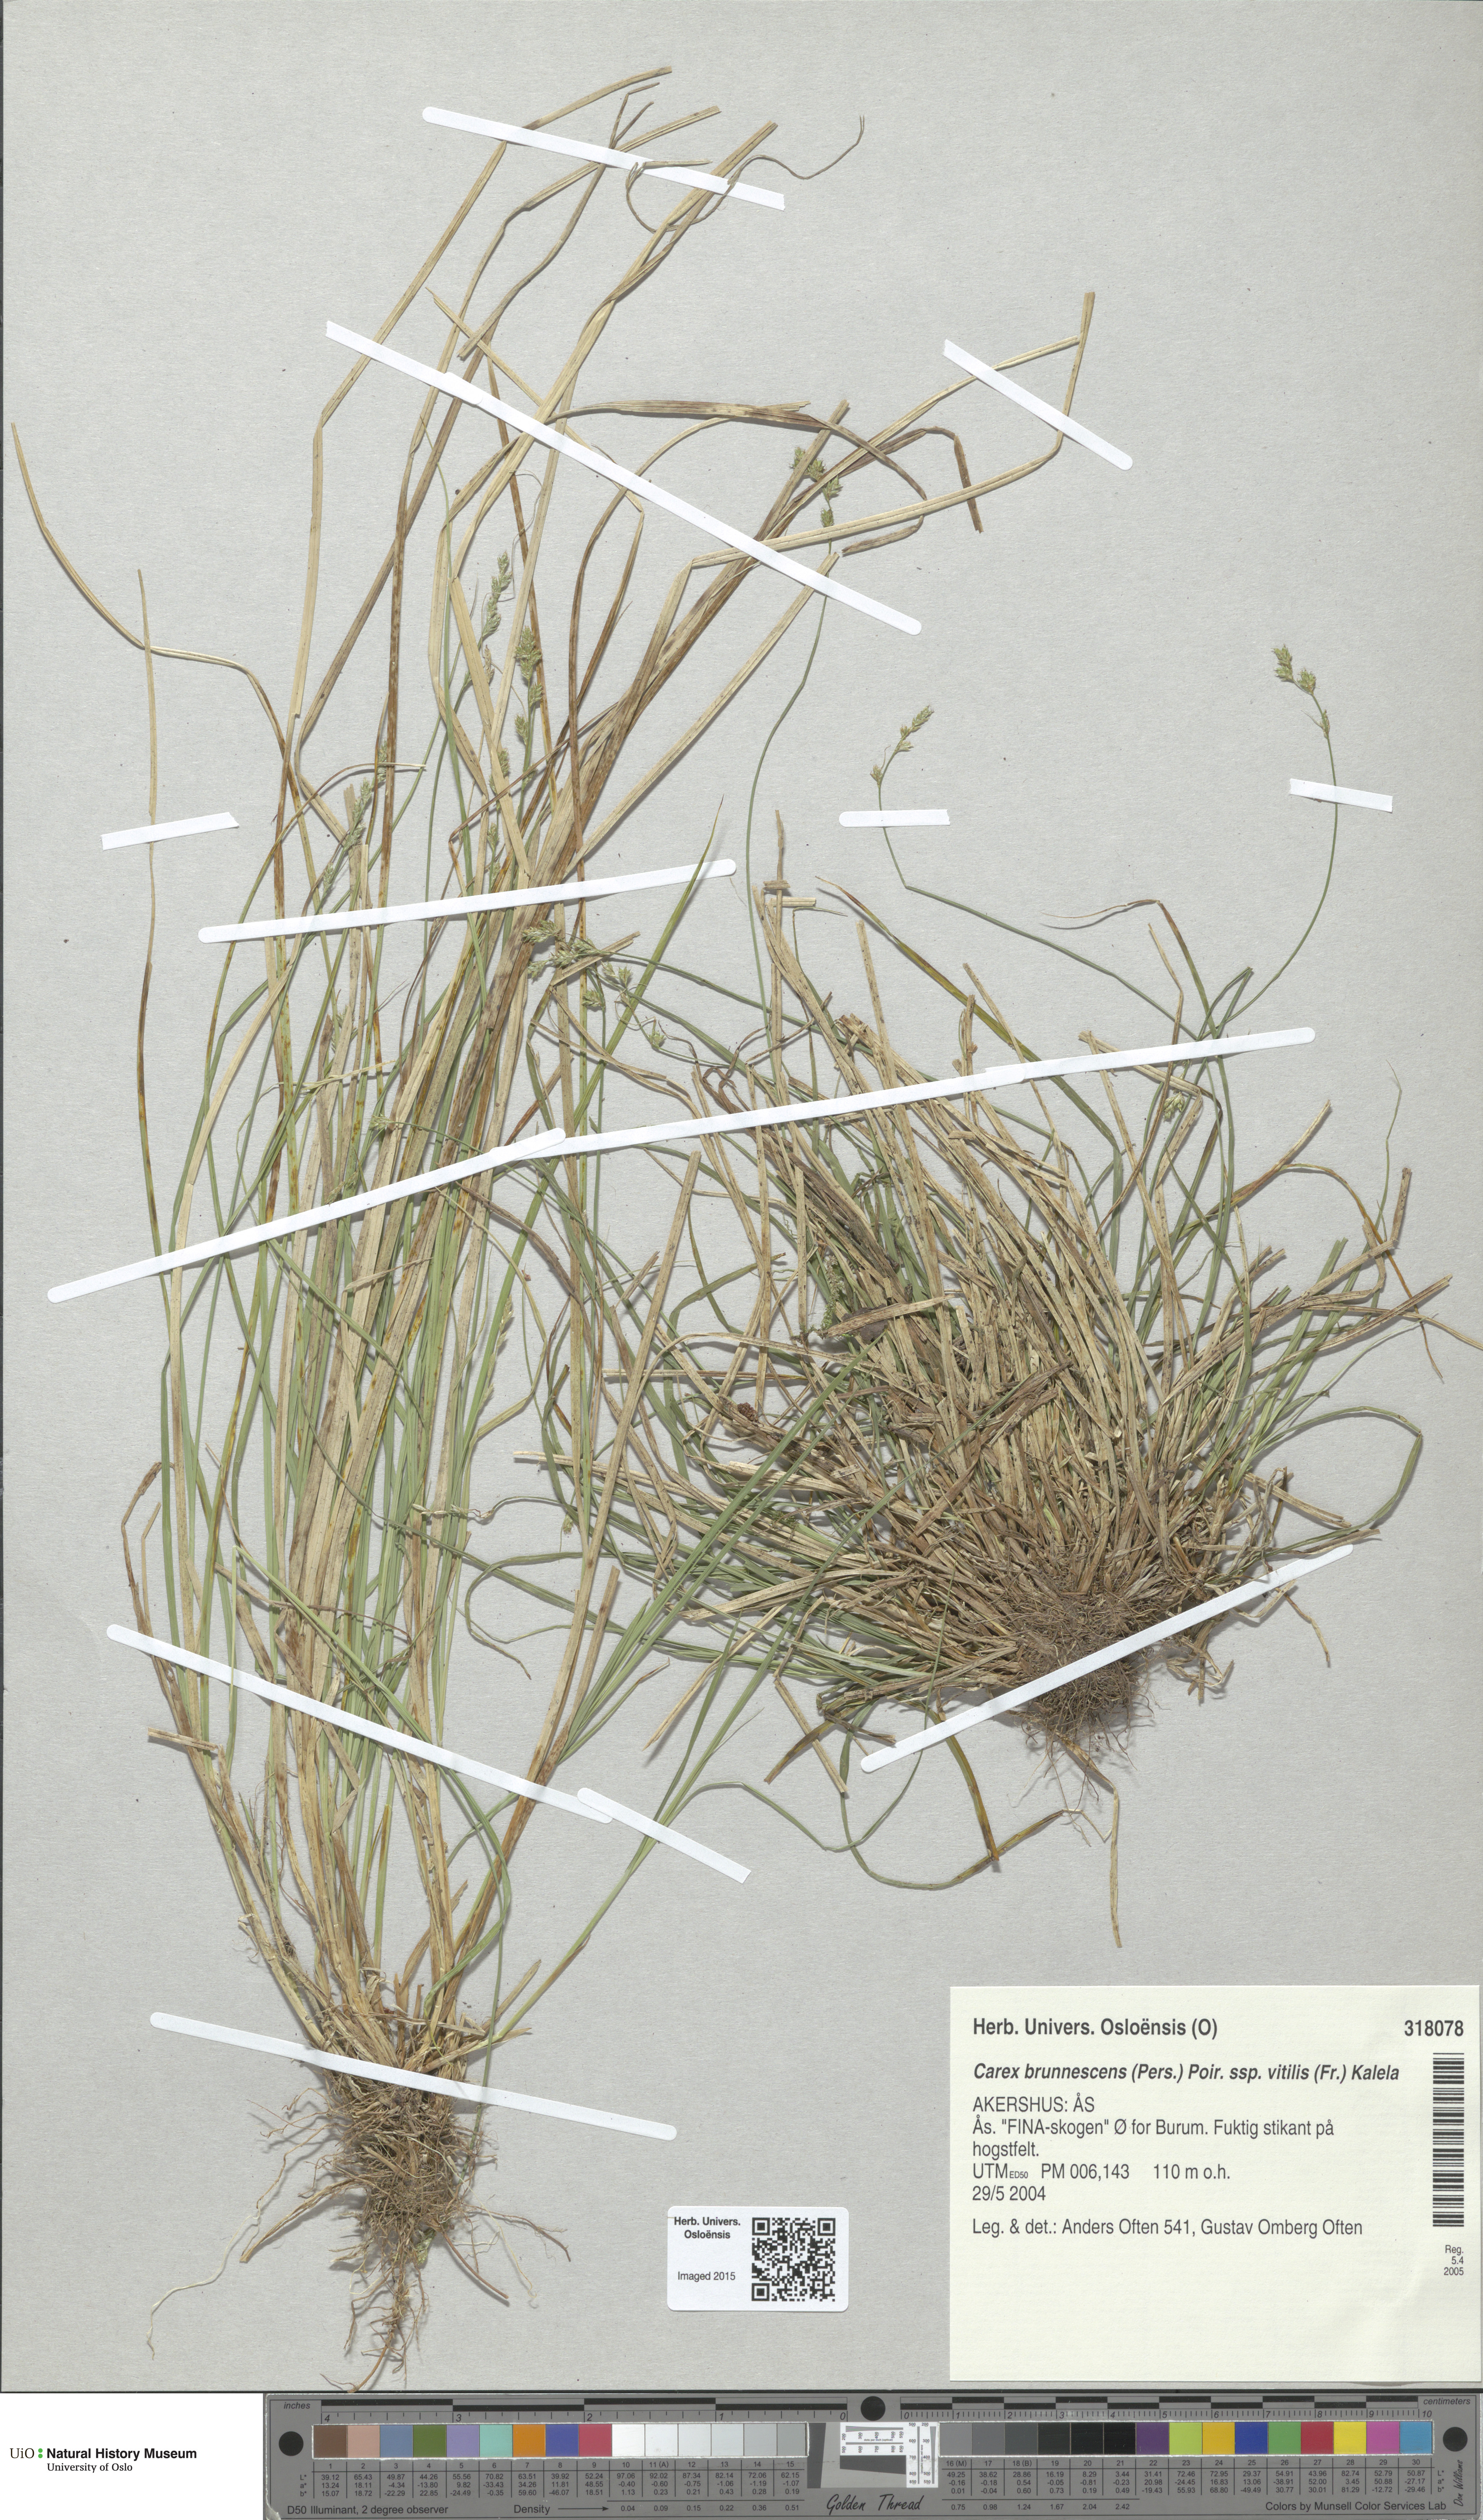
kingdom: Plantae
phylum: Tracheophyta
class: Liliopsida
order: Poales
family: Cyperaceae
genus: Carex
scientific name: Carex brunnescens
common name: Brown sedge
